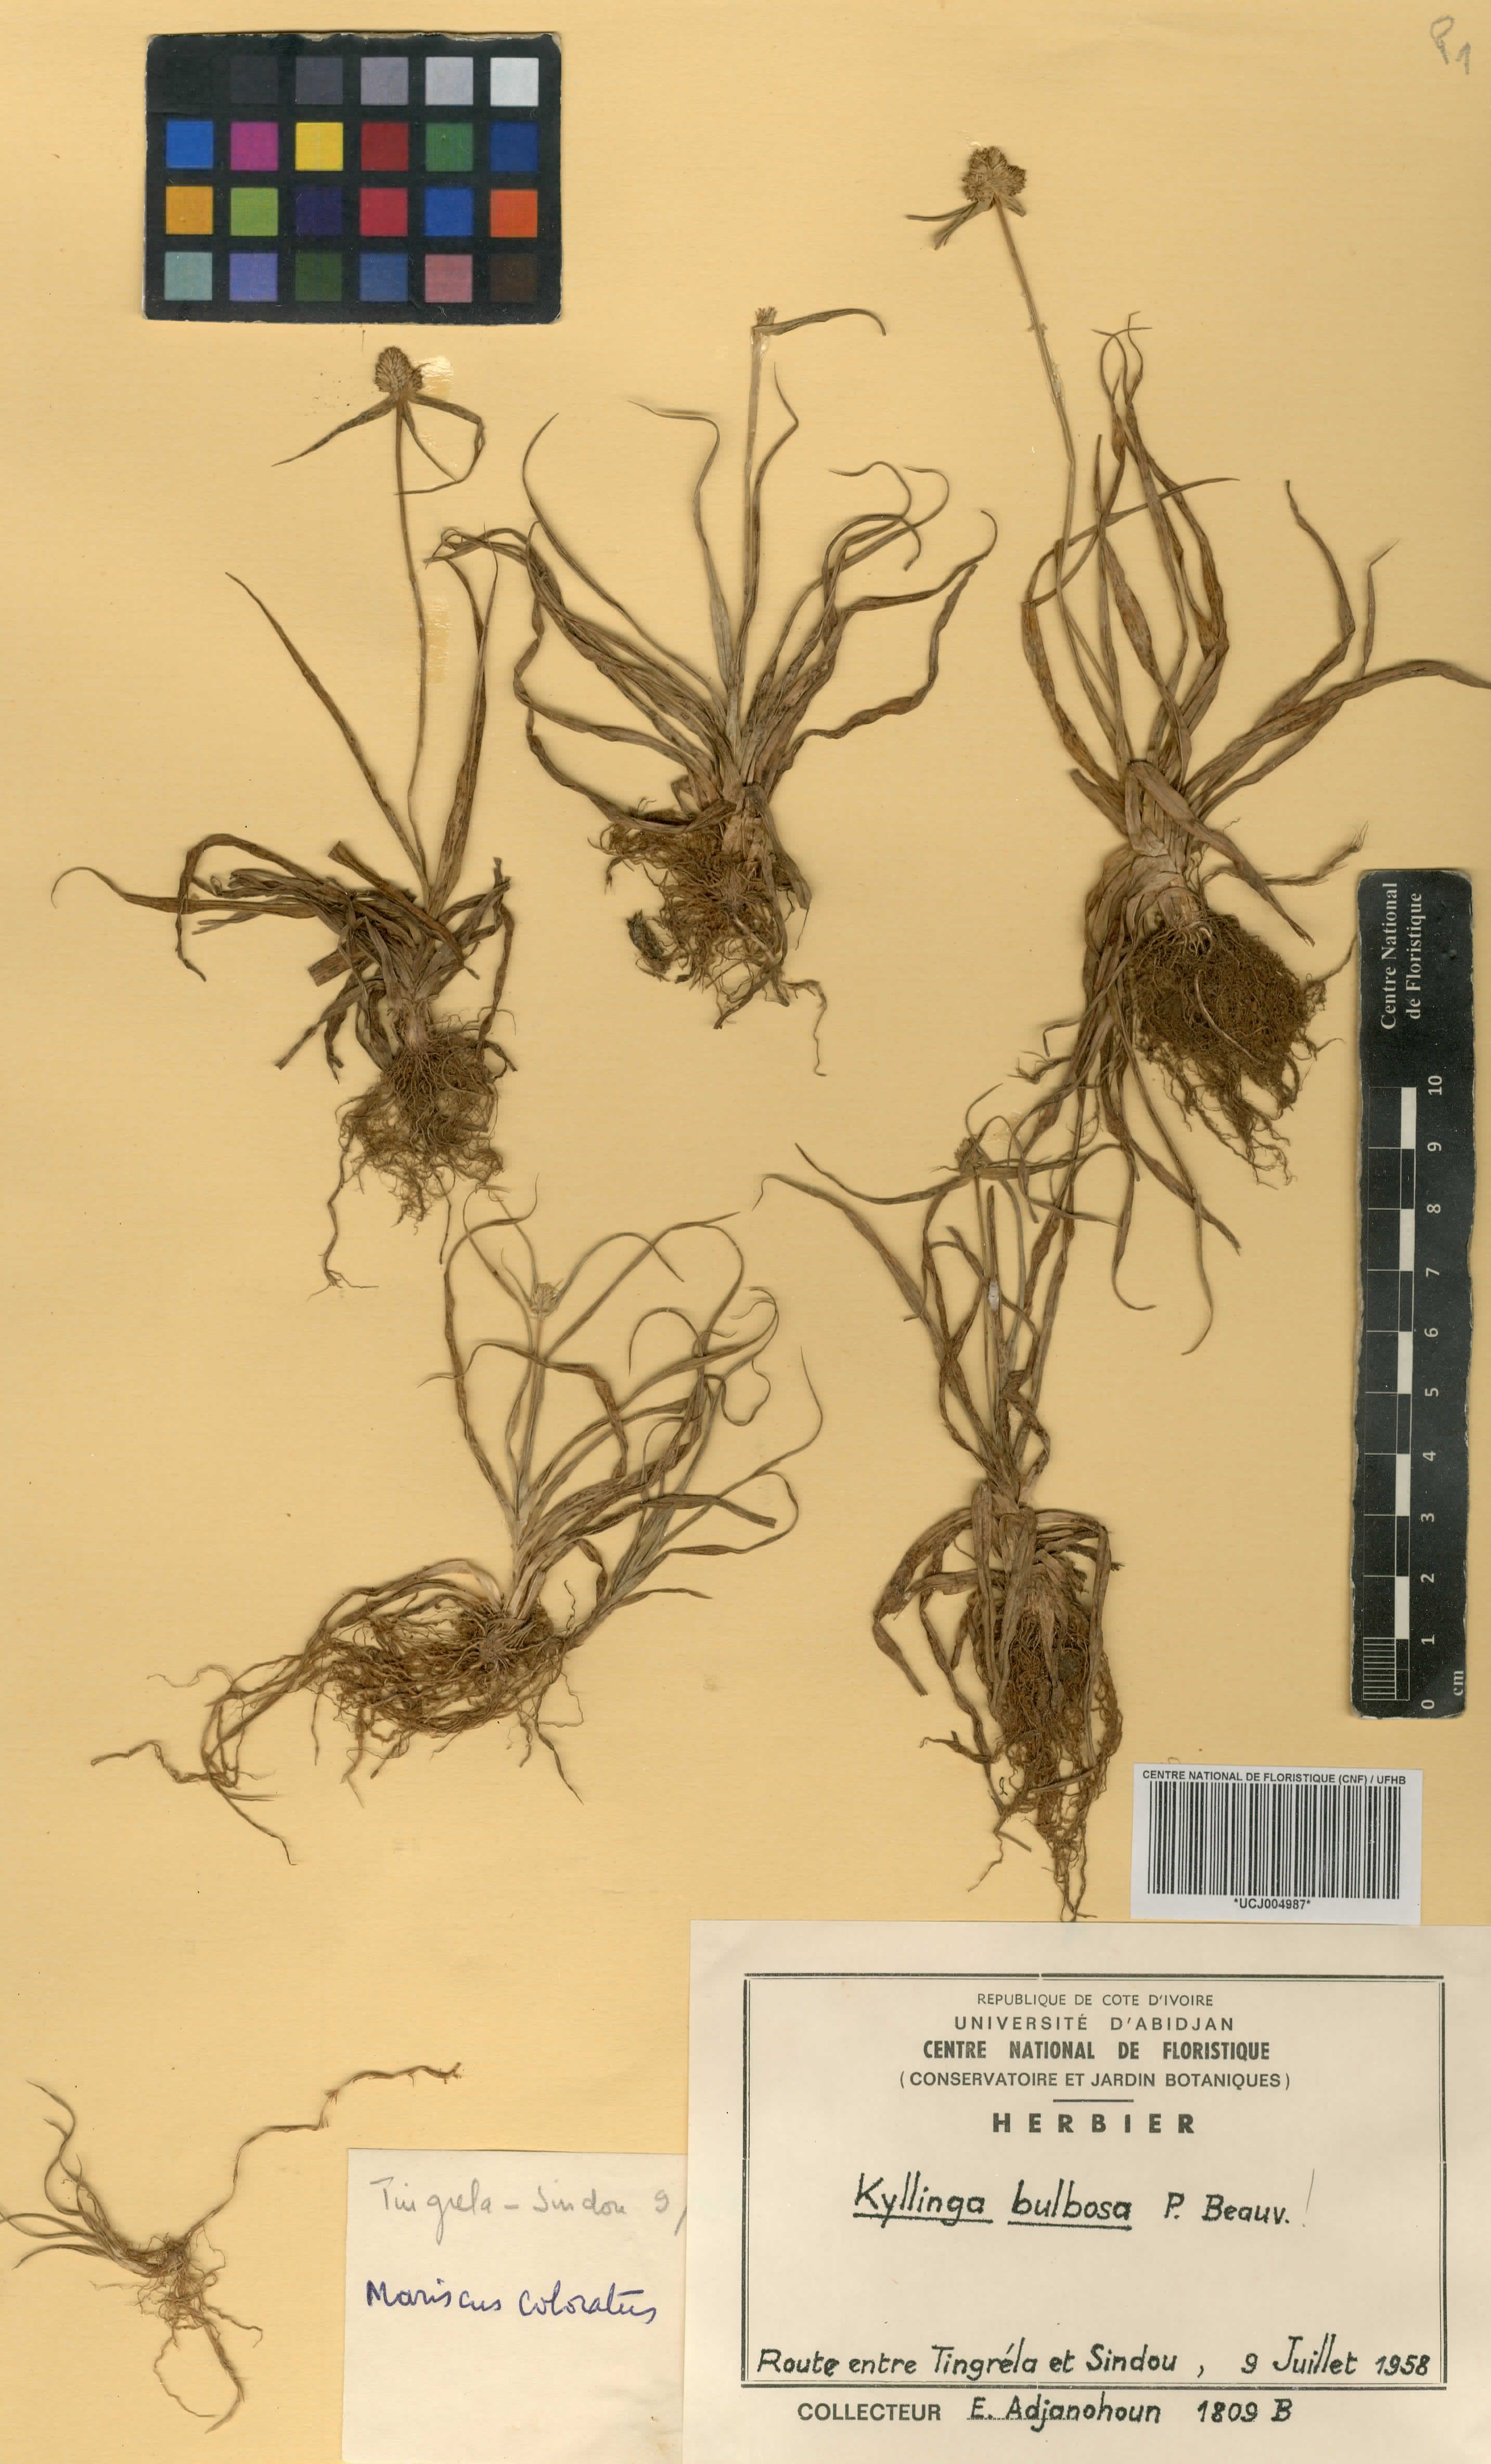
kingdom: Plantae
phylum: Tracheophyta
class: Liliopsida
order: Poales
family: Cyperaceae
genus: Cyperus
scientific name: Cyperus richardii
